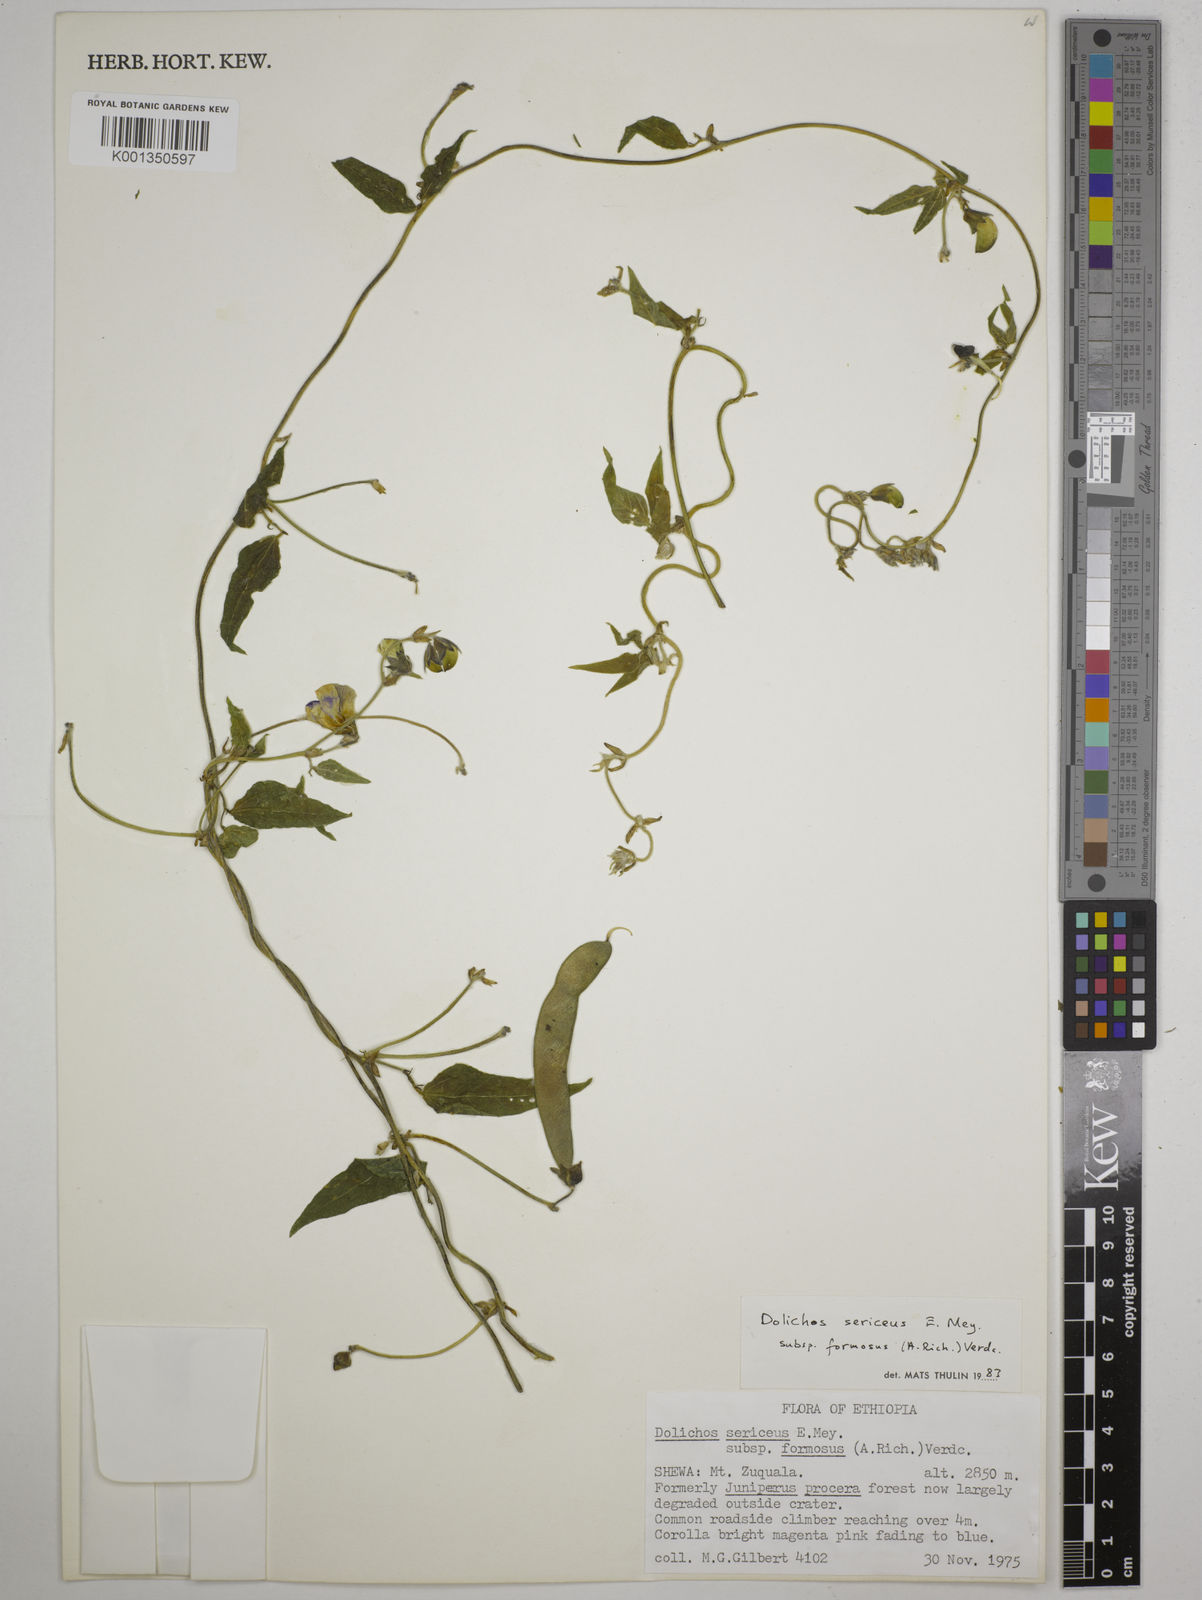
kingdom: Plantae
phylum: Tracheophyta
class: Magnoliopsida
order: Fabales
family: Fabaceae
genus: Dolichos
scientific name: Dolichos sericeus
